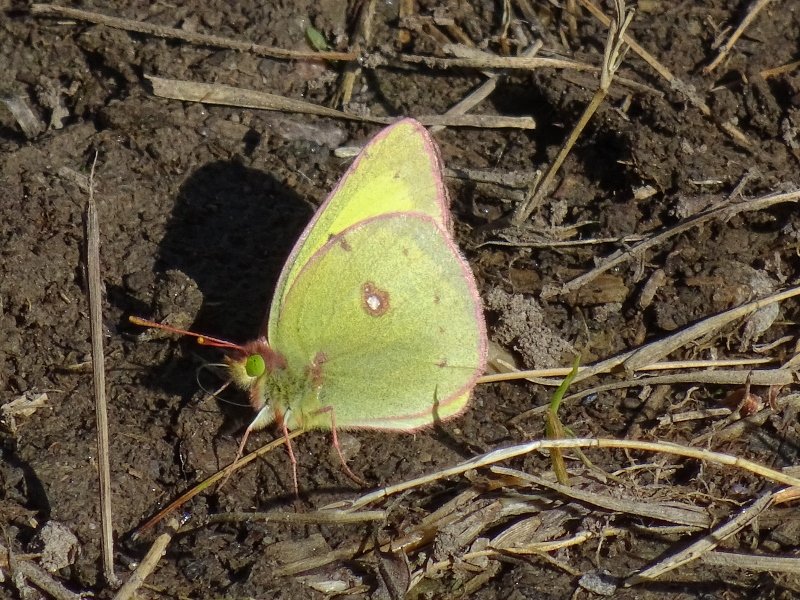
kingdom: Animalia
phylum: Arthropoda
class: Insecta
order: Lepidoptera
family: Pieridae
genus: Colias
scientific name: Colias philodice
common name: Clouded Sulphur
